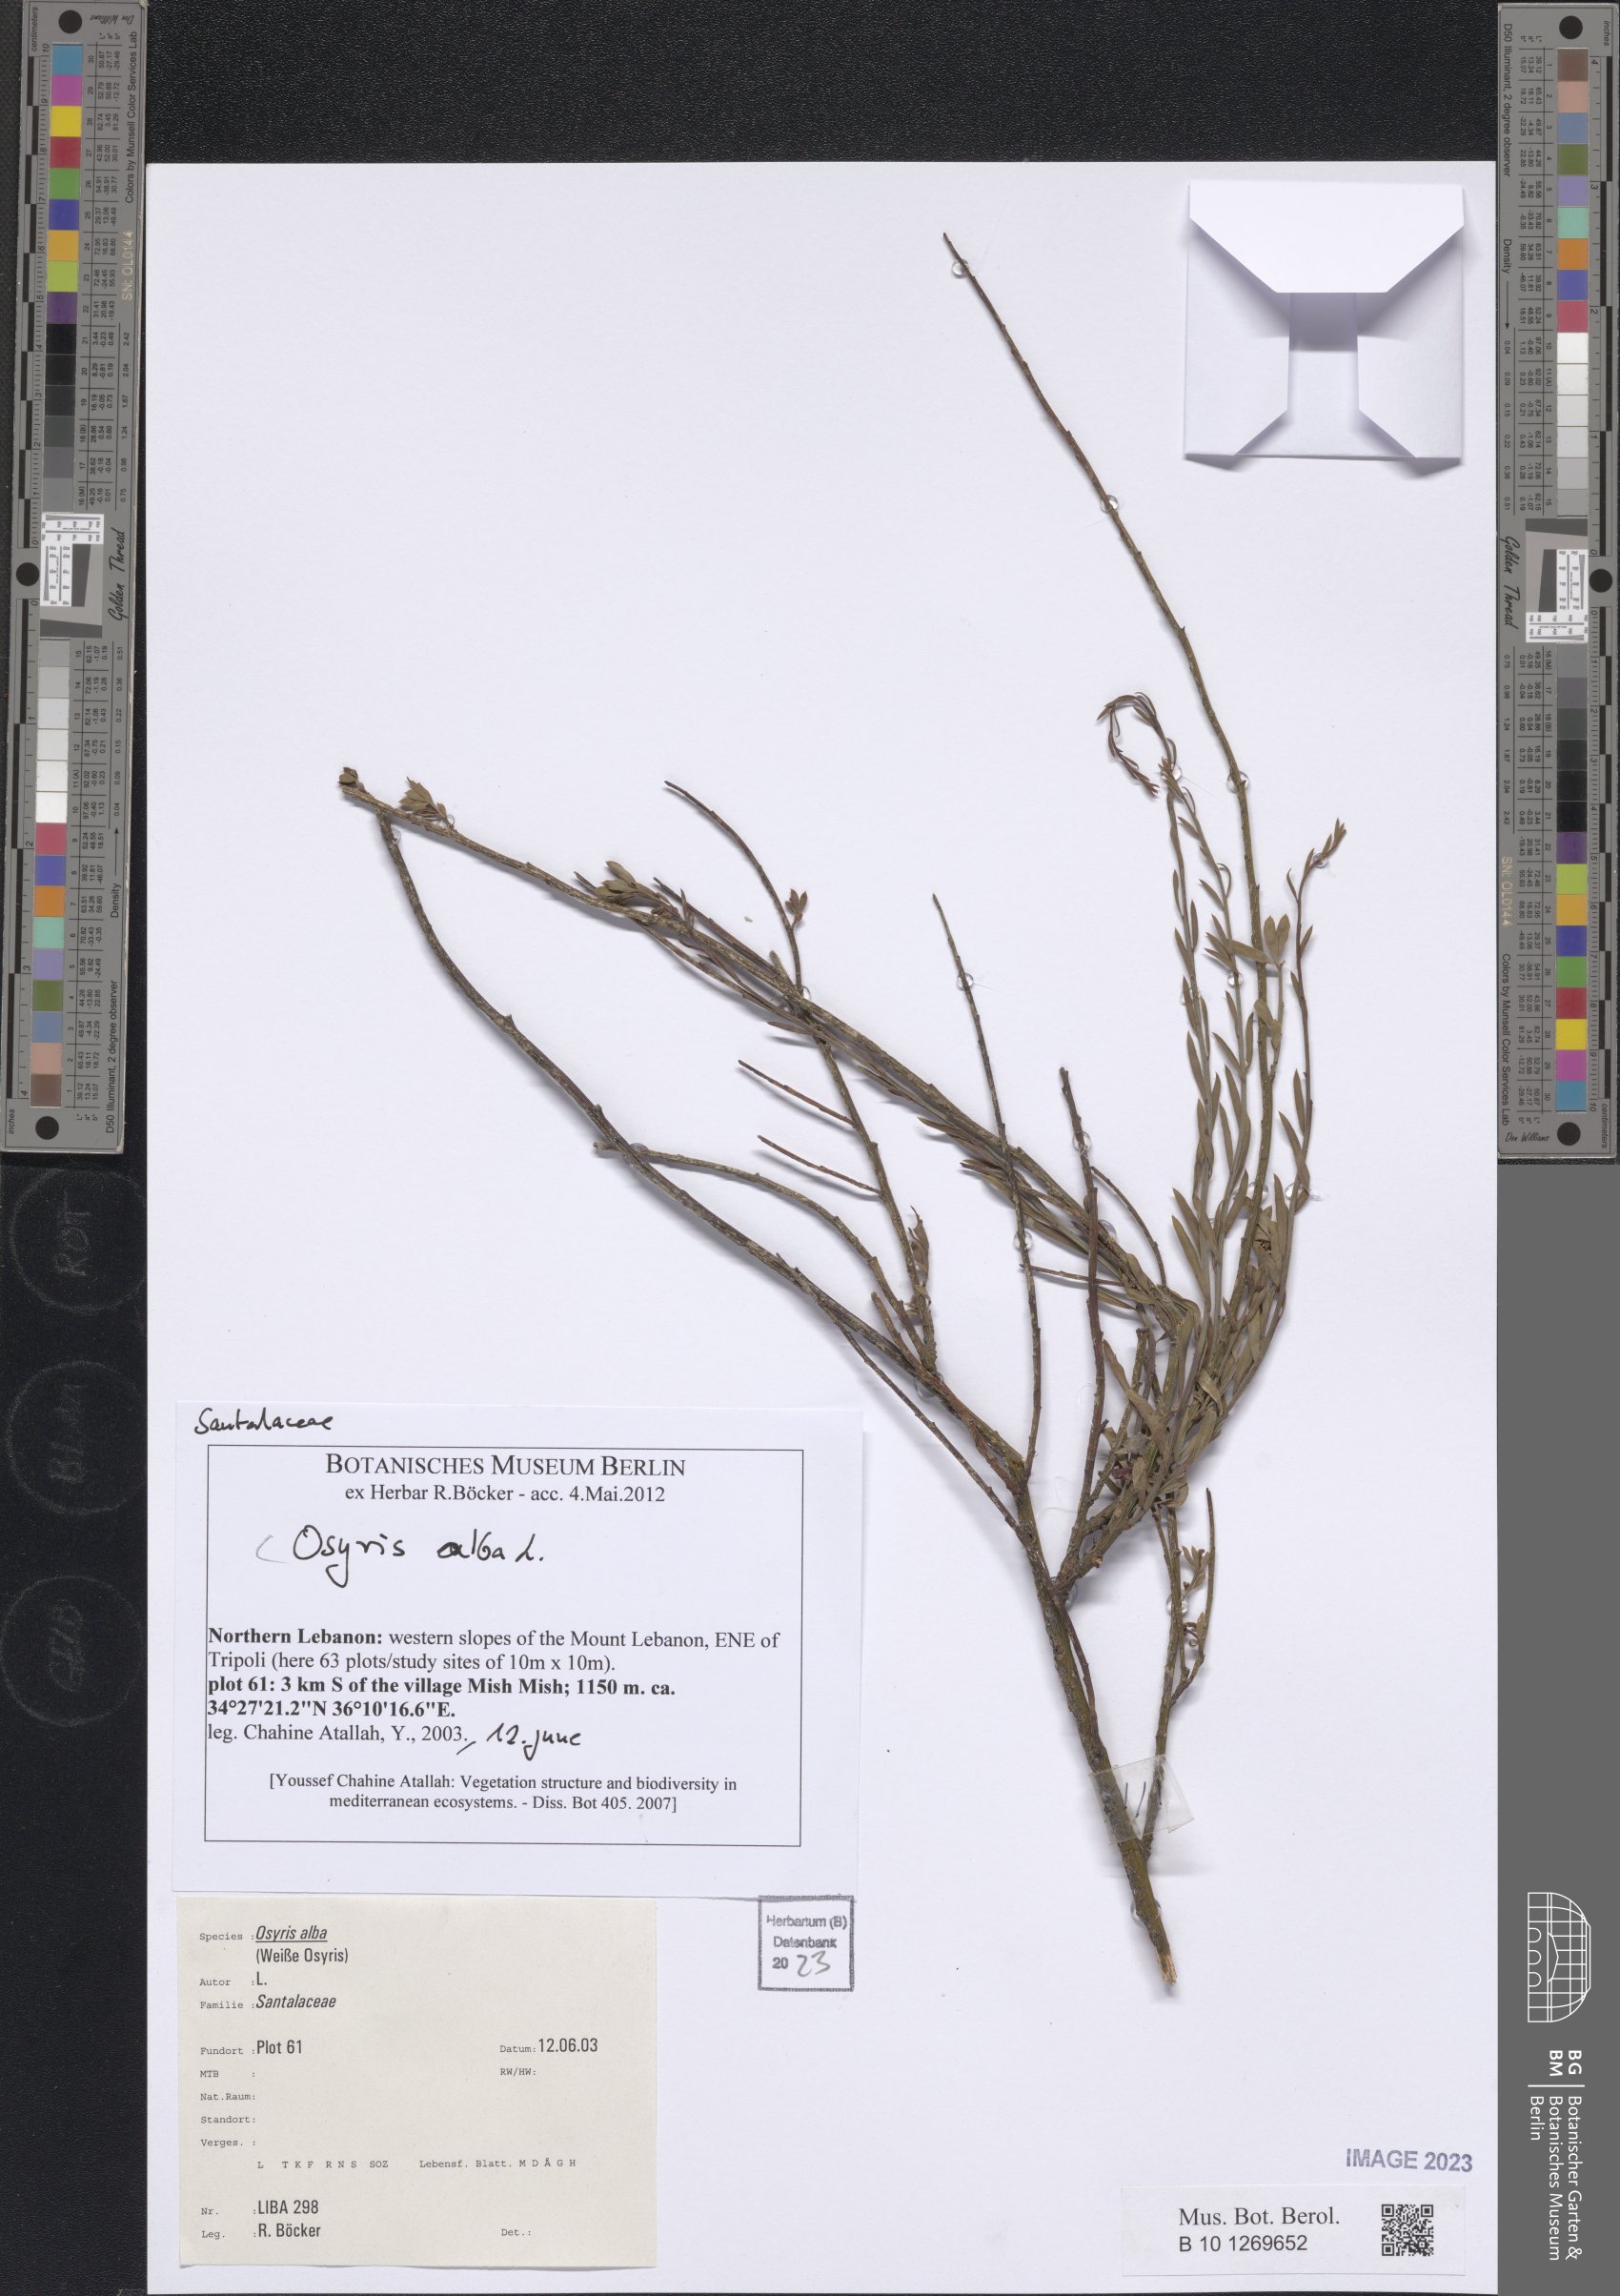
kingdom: Plantae
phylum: Tracheophyta
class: Magnoliopsida
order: Santalales
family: Santalaceae
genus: Osyris
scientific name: Osyris alba
